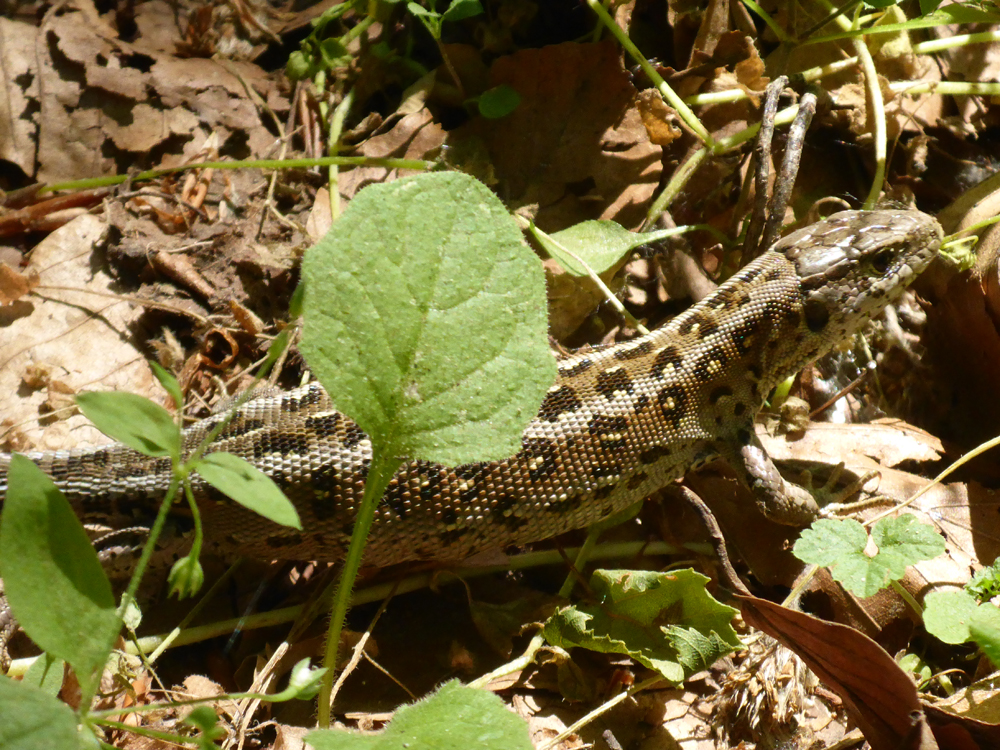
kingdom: Animalia
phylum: Chordata
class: Squamata
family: Lacertidae
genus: Zootoca
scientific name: Zootoca
